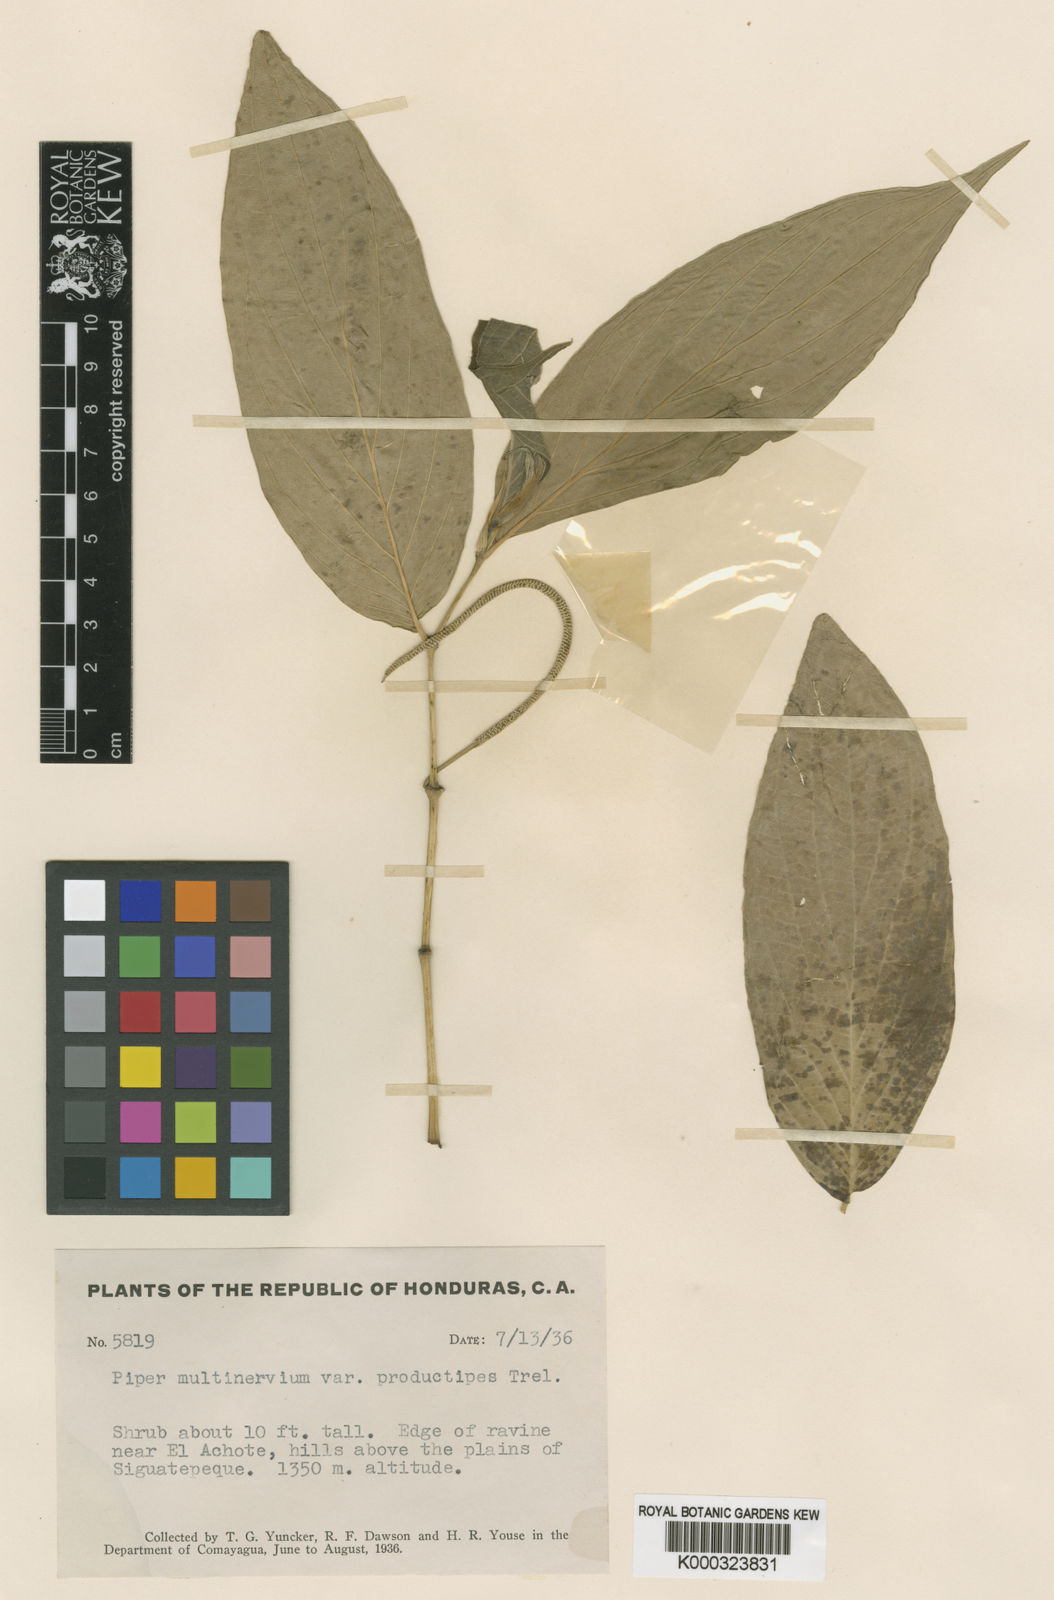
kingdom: Plantae
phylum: Tracheophyta
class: Magnoliopsida
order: Piperales
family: Piperaceae
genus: Piper
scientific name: Piper aduncum
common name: Spiked pepper
